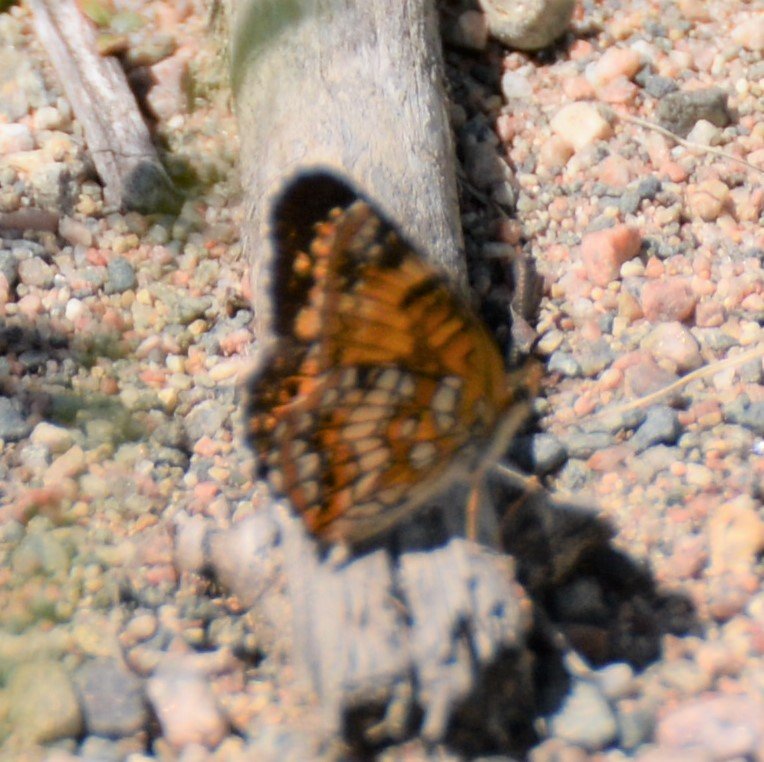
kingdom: Animalia
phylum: Arthropoda
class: Insecta
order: Lepidoptera
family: Nymphalidae
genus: Chlosyne
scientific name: Chlosyne harrisii
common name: Harris's Checkerspot
